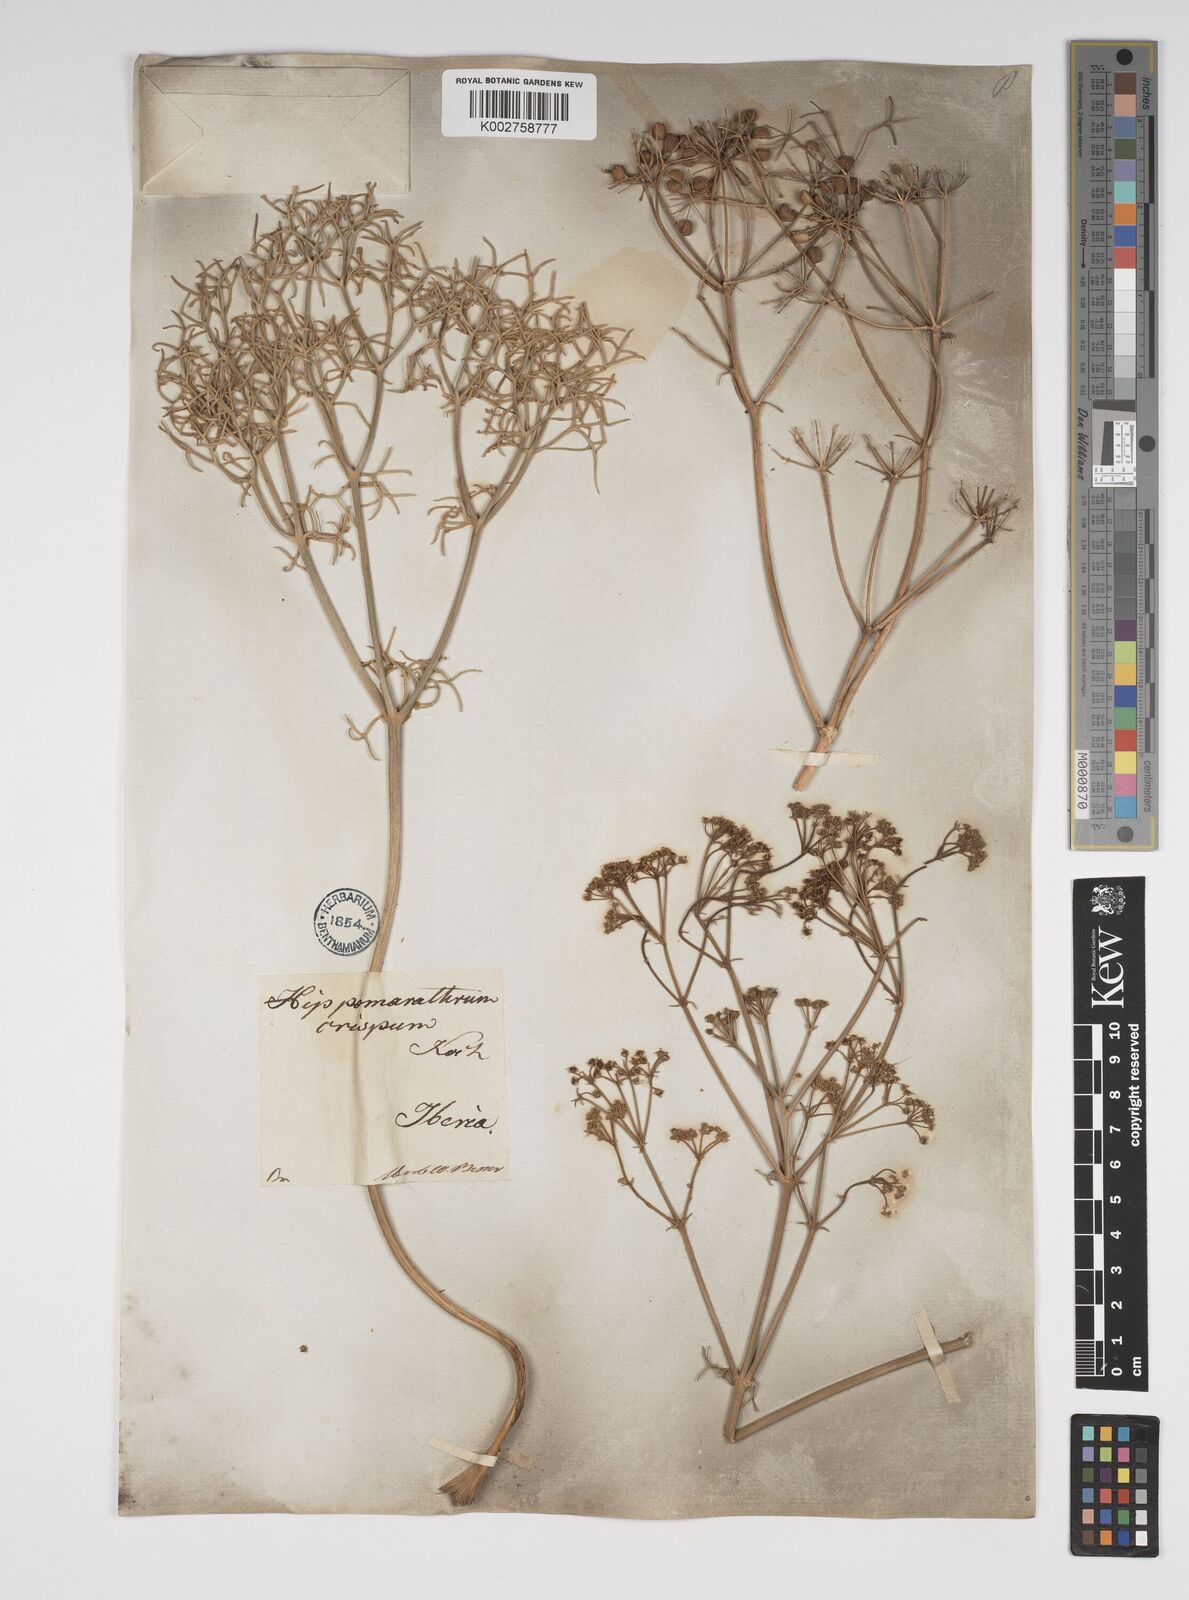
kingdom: Plantae
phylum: Tracheophyta
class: Magnoliopsida
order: Apiales
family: Apiaceae
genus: Bilacunaria
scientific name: Bilacunaria microcarpa
